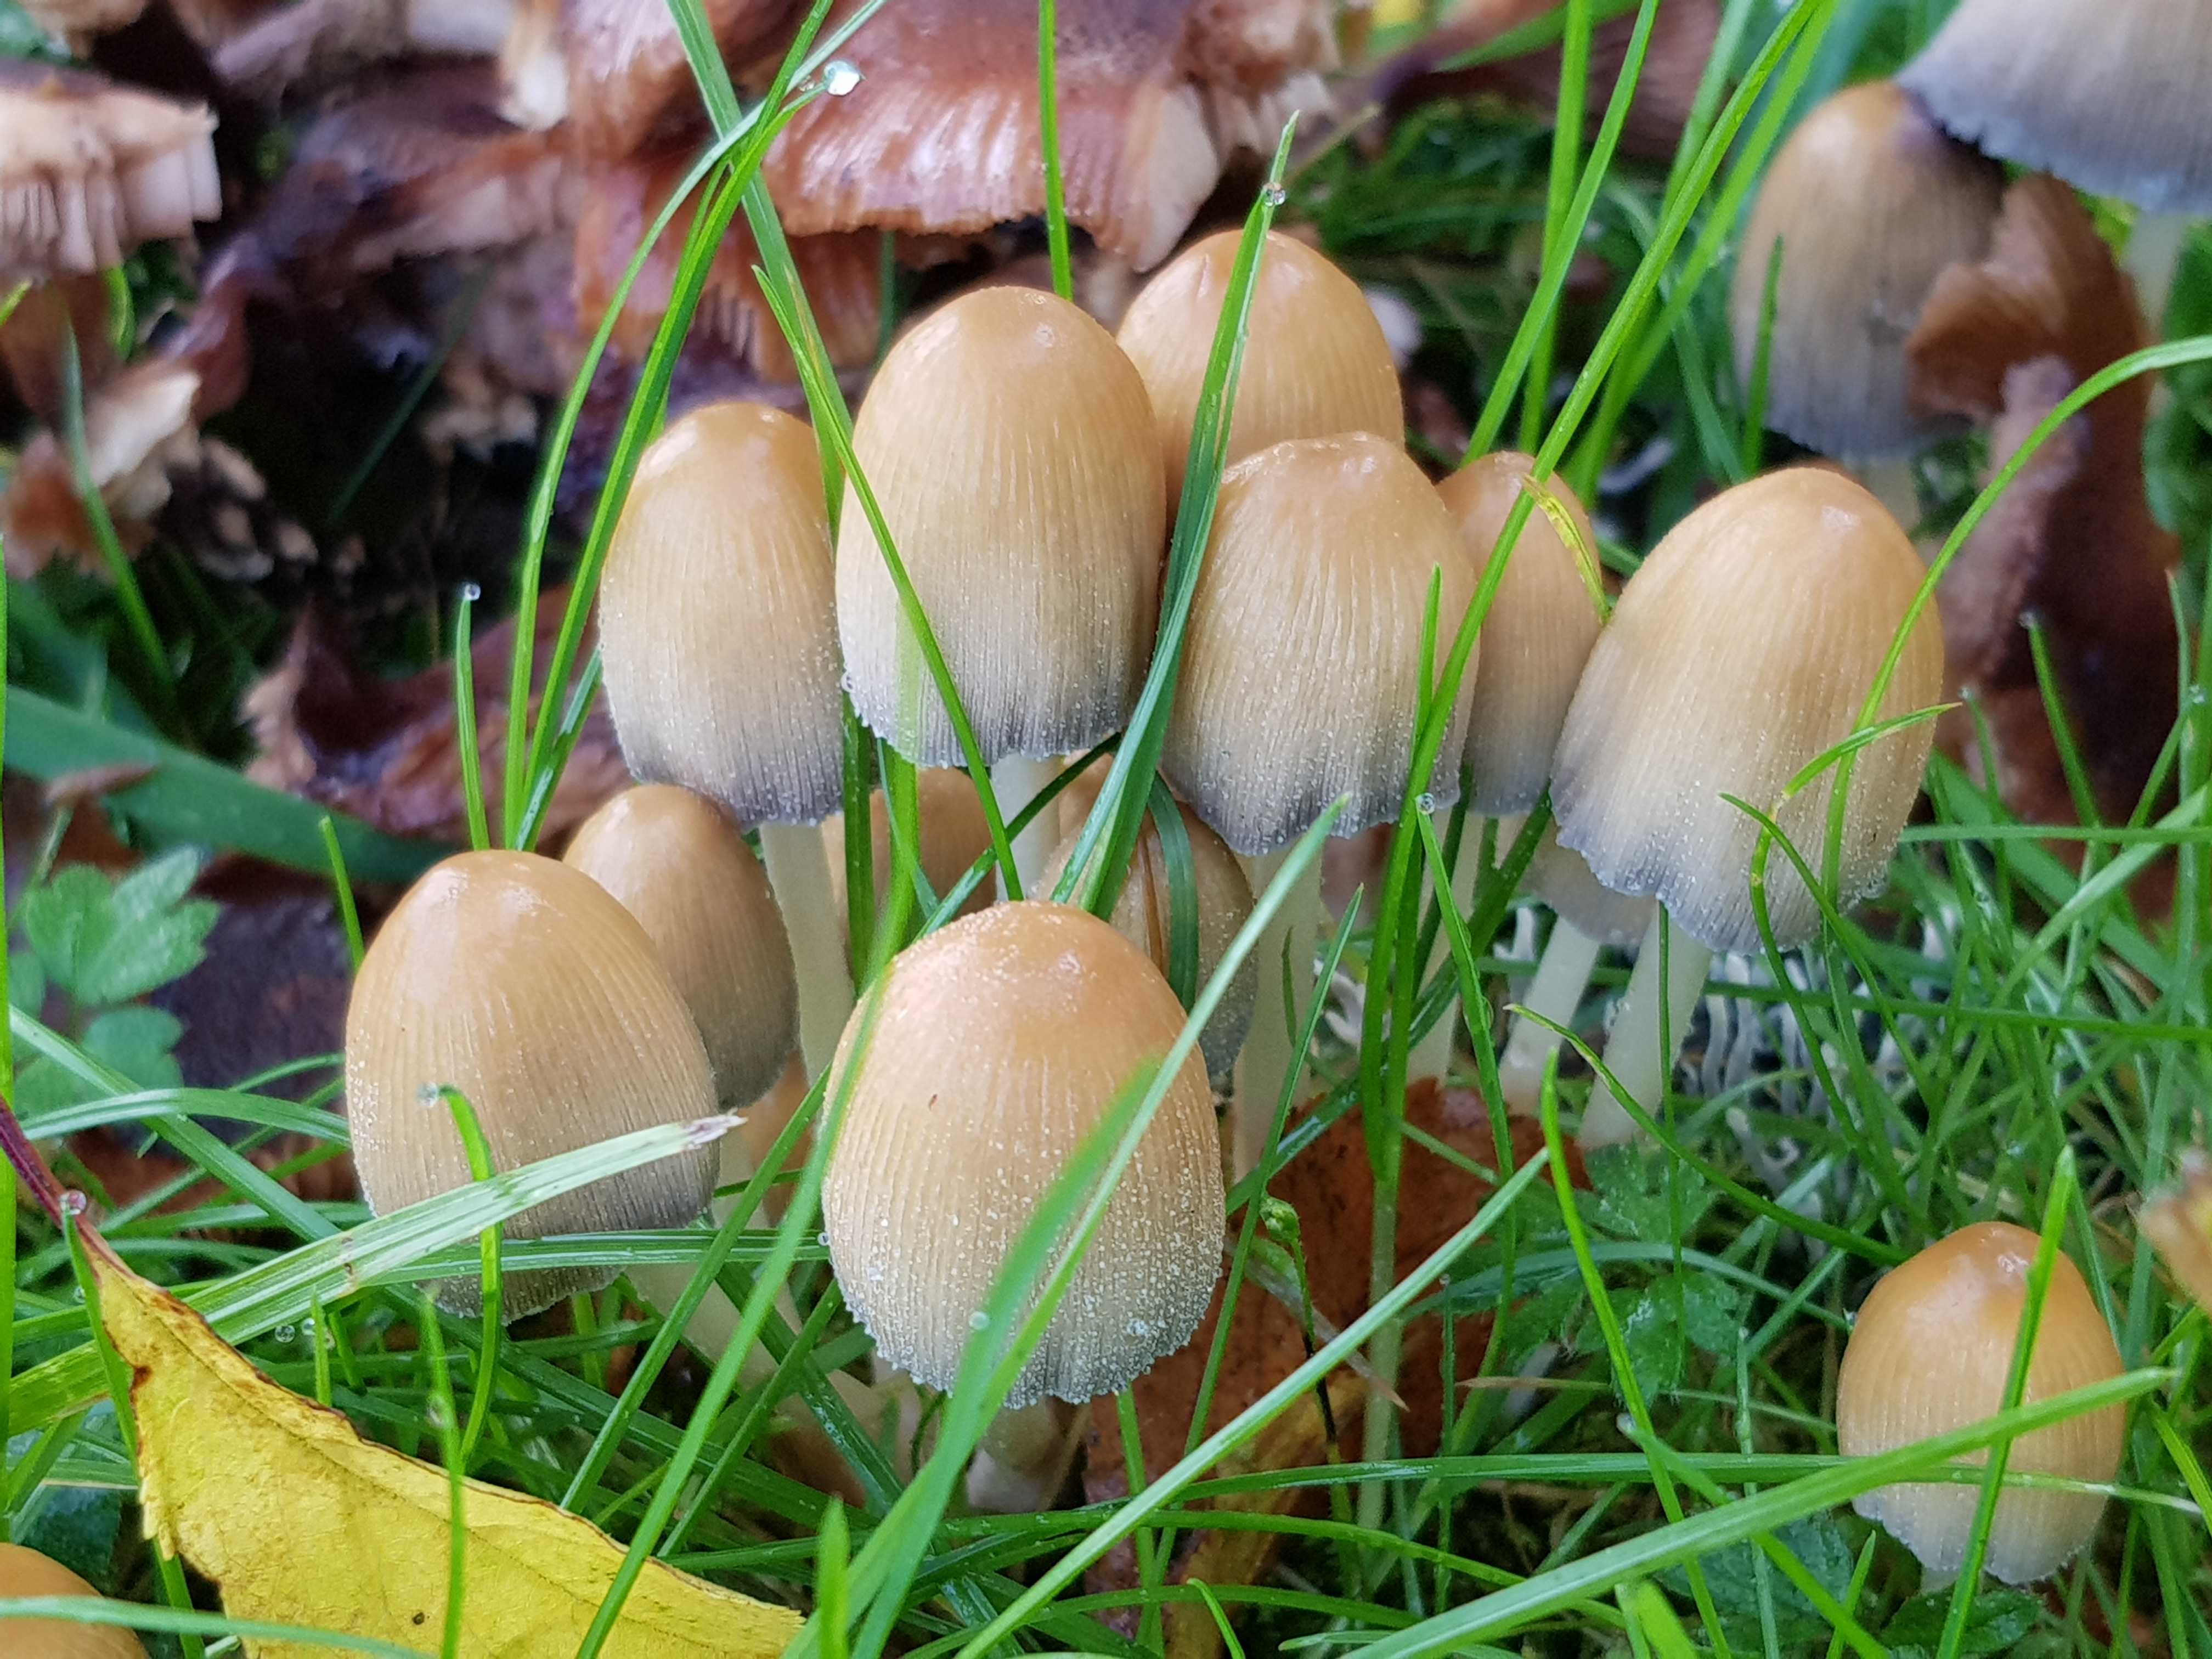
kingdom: Fungi
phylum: Basidiomycota
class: Agaricomycetes
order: Agaricales
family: Psathyrellaceae
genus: Coprinellus
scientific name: Coprinellus micaceus
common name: glimmer-blækhat
